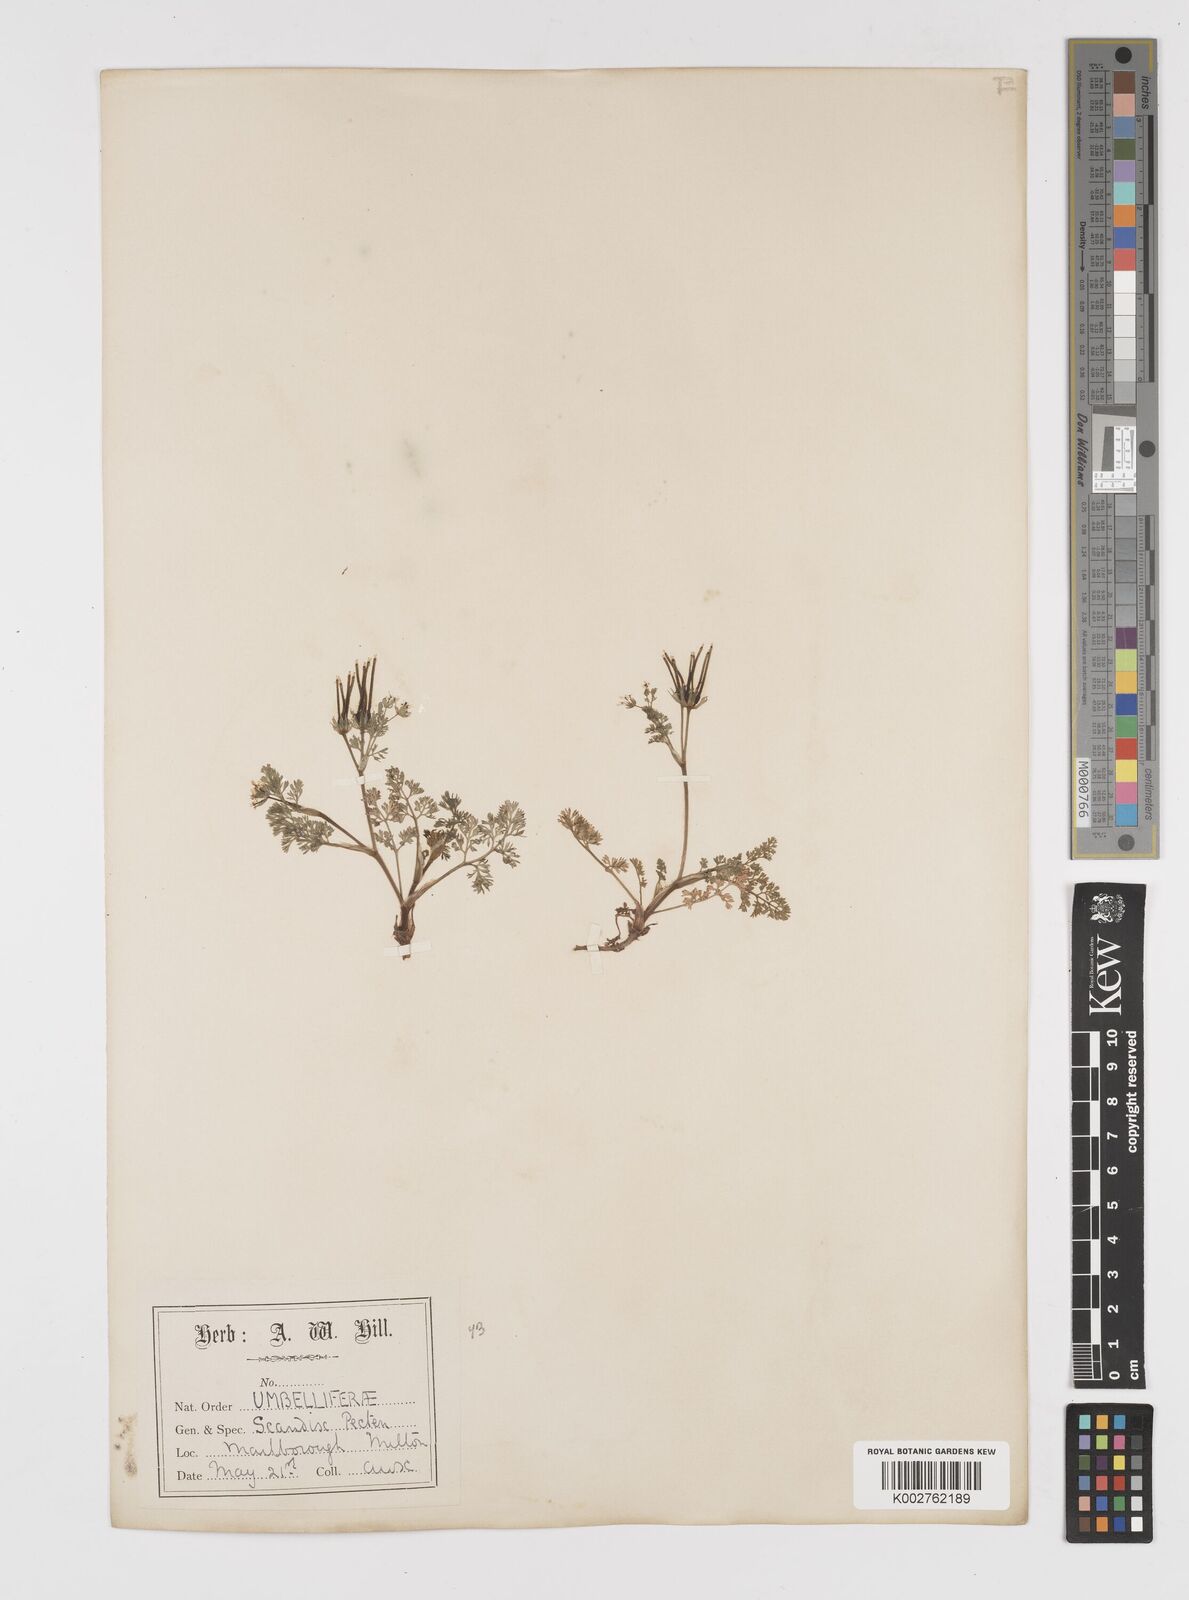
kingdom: Plantae
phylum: Tracheophyta
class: Magnoliopsida
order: Apiales
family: Apiaceae
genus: Scandix
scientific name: Scandix pecten-veneris
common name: Shepherd's-needle
